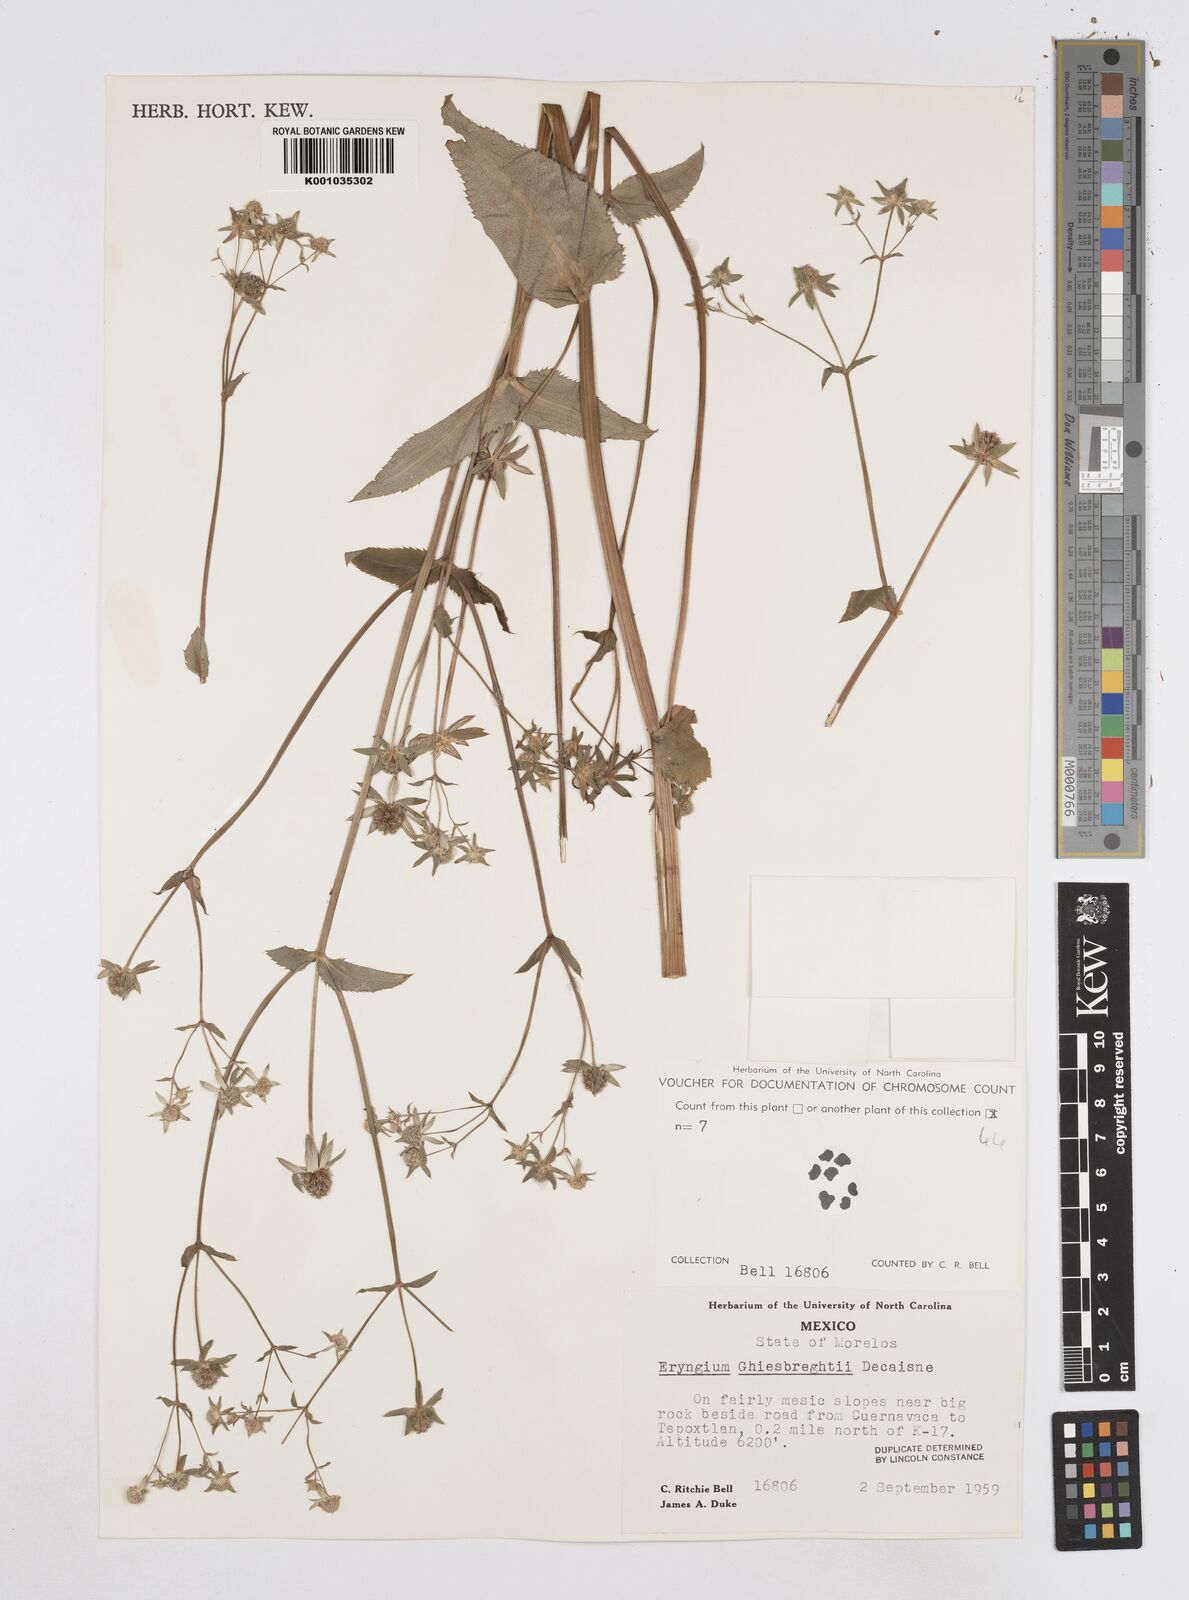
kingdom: Plantae
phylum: Tracheophyta
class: Magnoliopsida
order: Apiales
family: Apiaceae
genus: Eryngium
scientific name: Eryngium ghiesbreghtii
